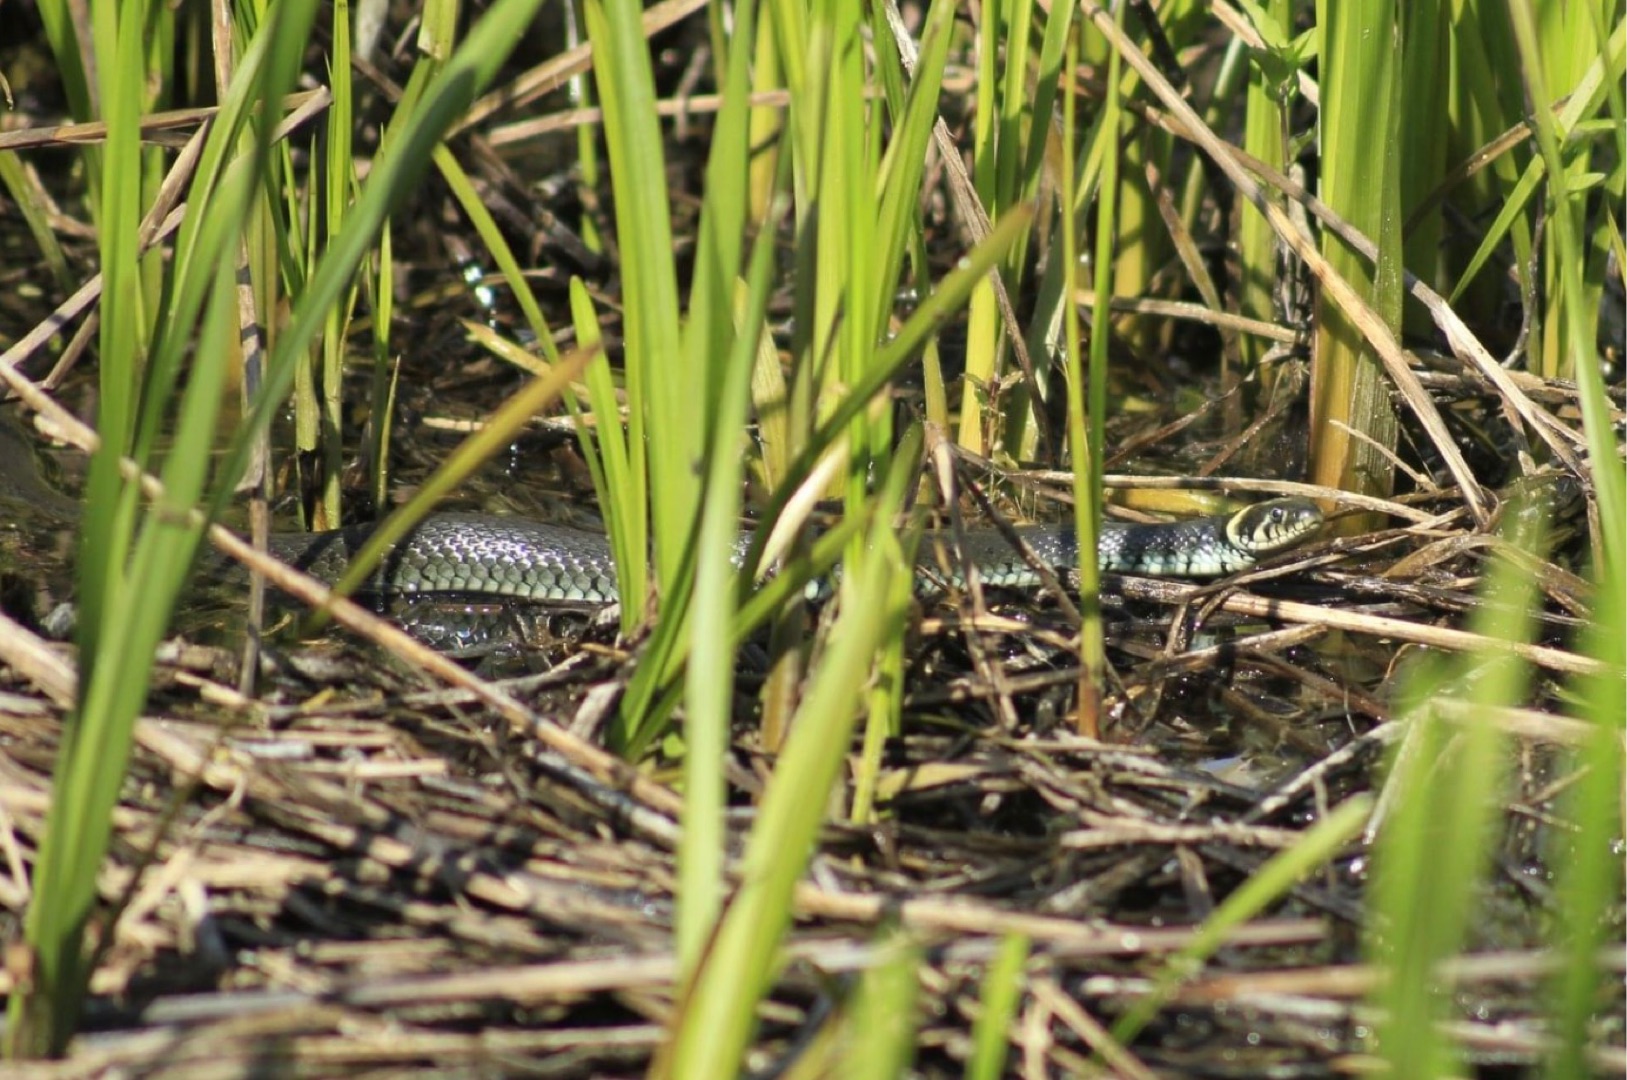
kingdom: Animalia
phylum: Chordata
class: Squamata
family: Colubridae
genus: Natrix
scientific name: Natrix natrix
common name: Snog
